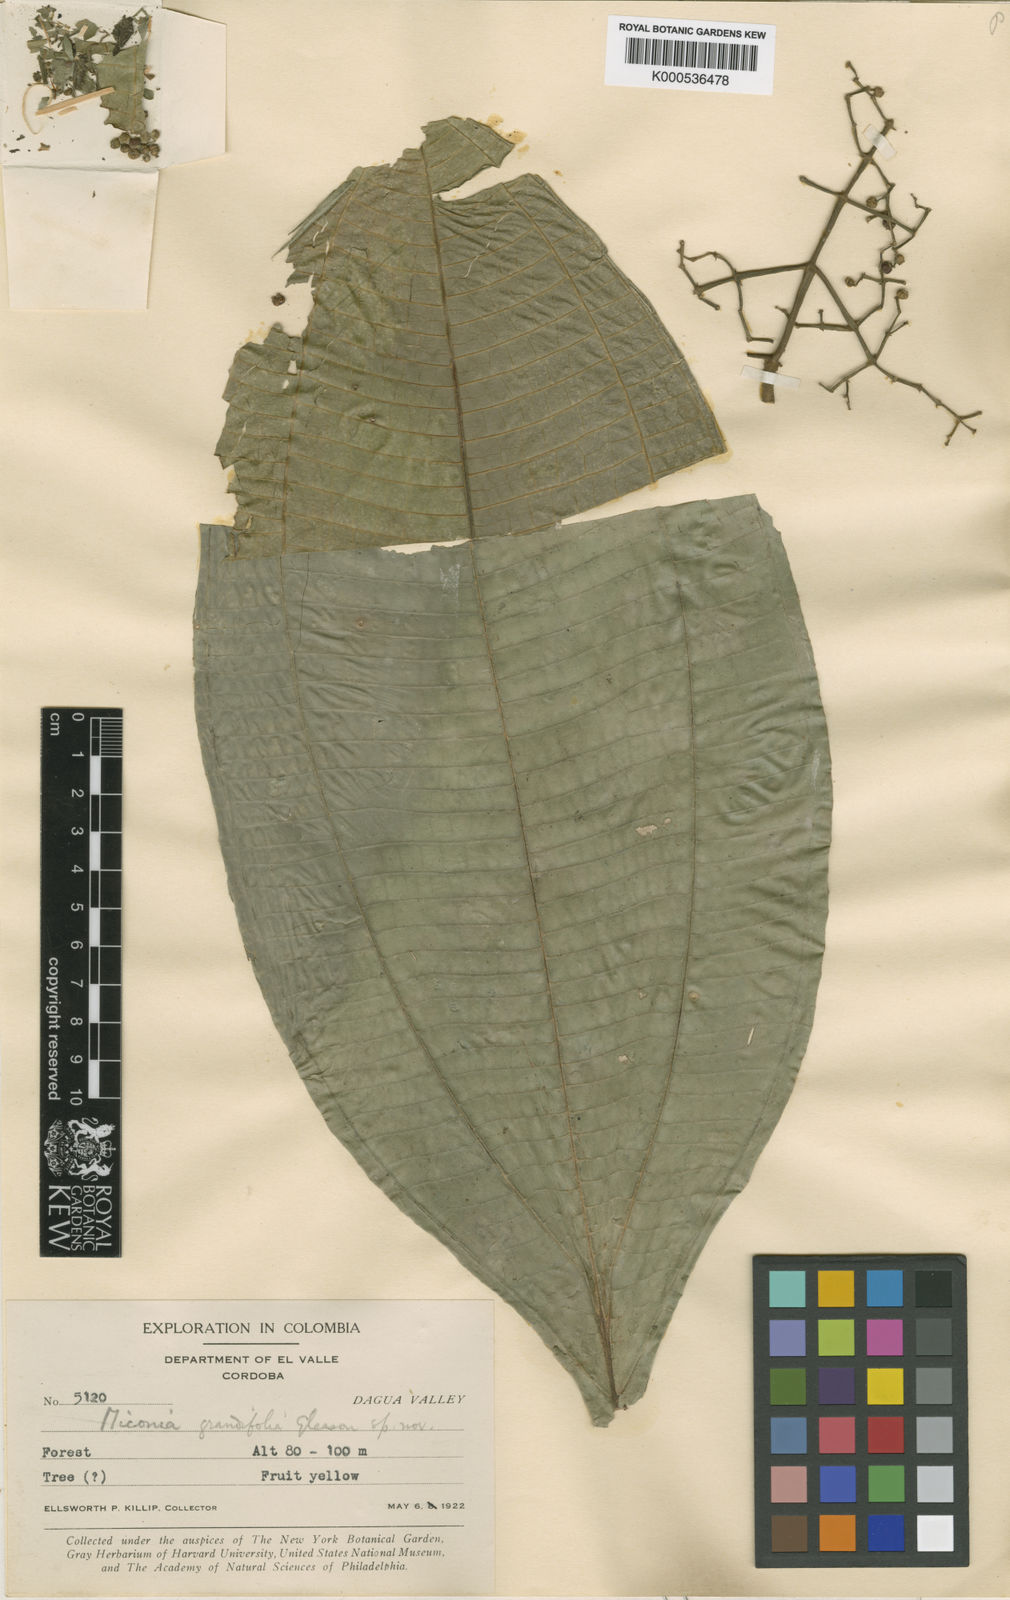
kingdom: Plantae
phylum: Tracheophyta
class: Magnoliopsida
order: Myrtales
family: Melastomataceae
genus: Miconia
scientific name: Miconia sessilis
